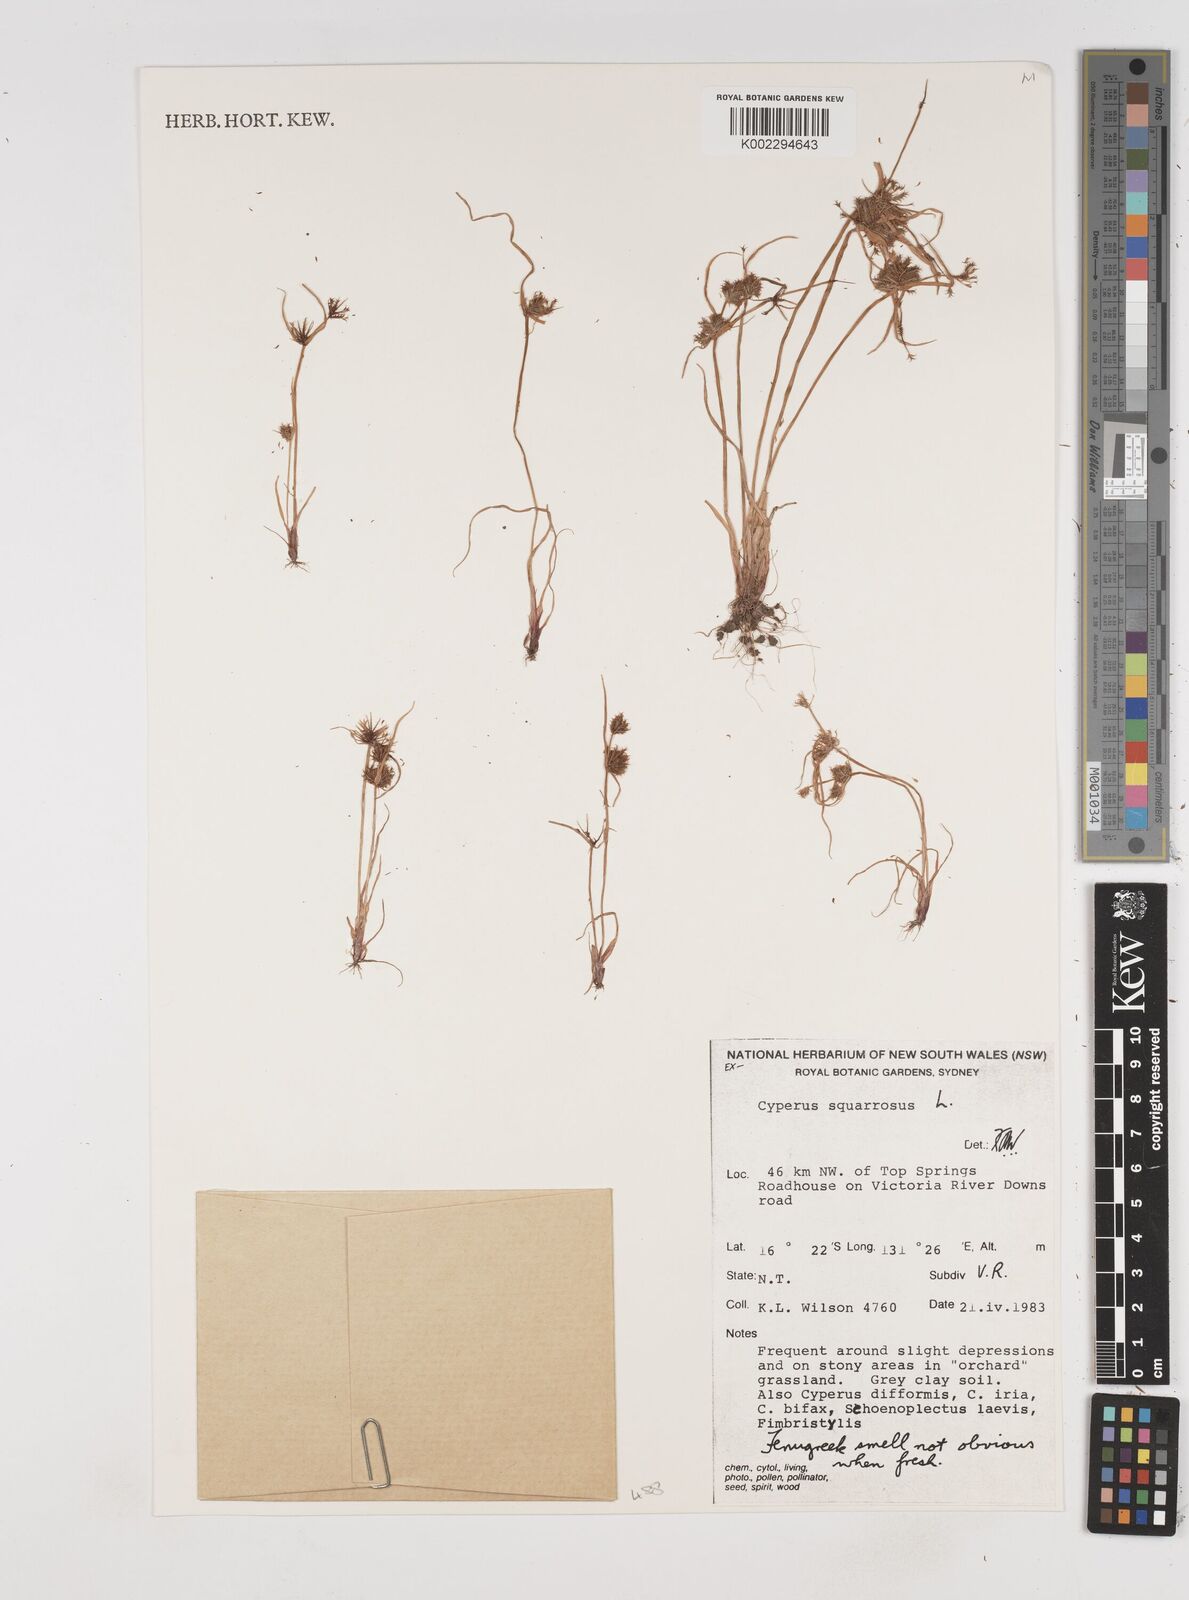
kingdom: Plantae
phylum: Tracheophyta
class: Liliopsida
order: Poales
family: Cyperaceae
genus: Cyperus
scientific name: Cyperus squarrosus
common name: Awned cyperus
